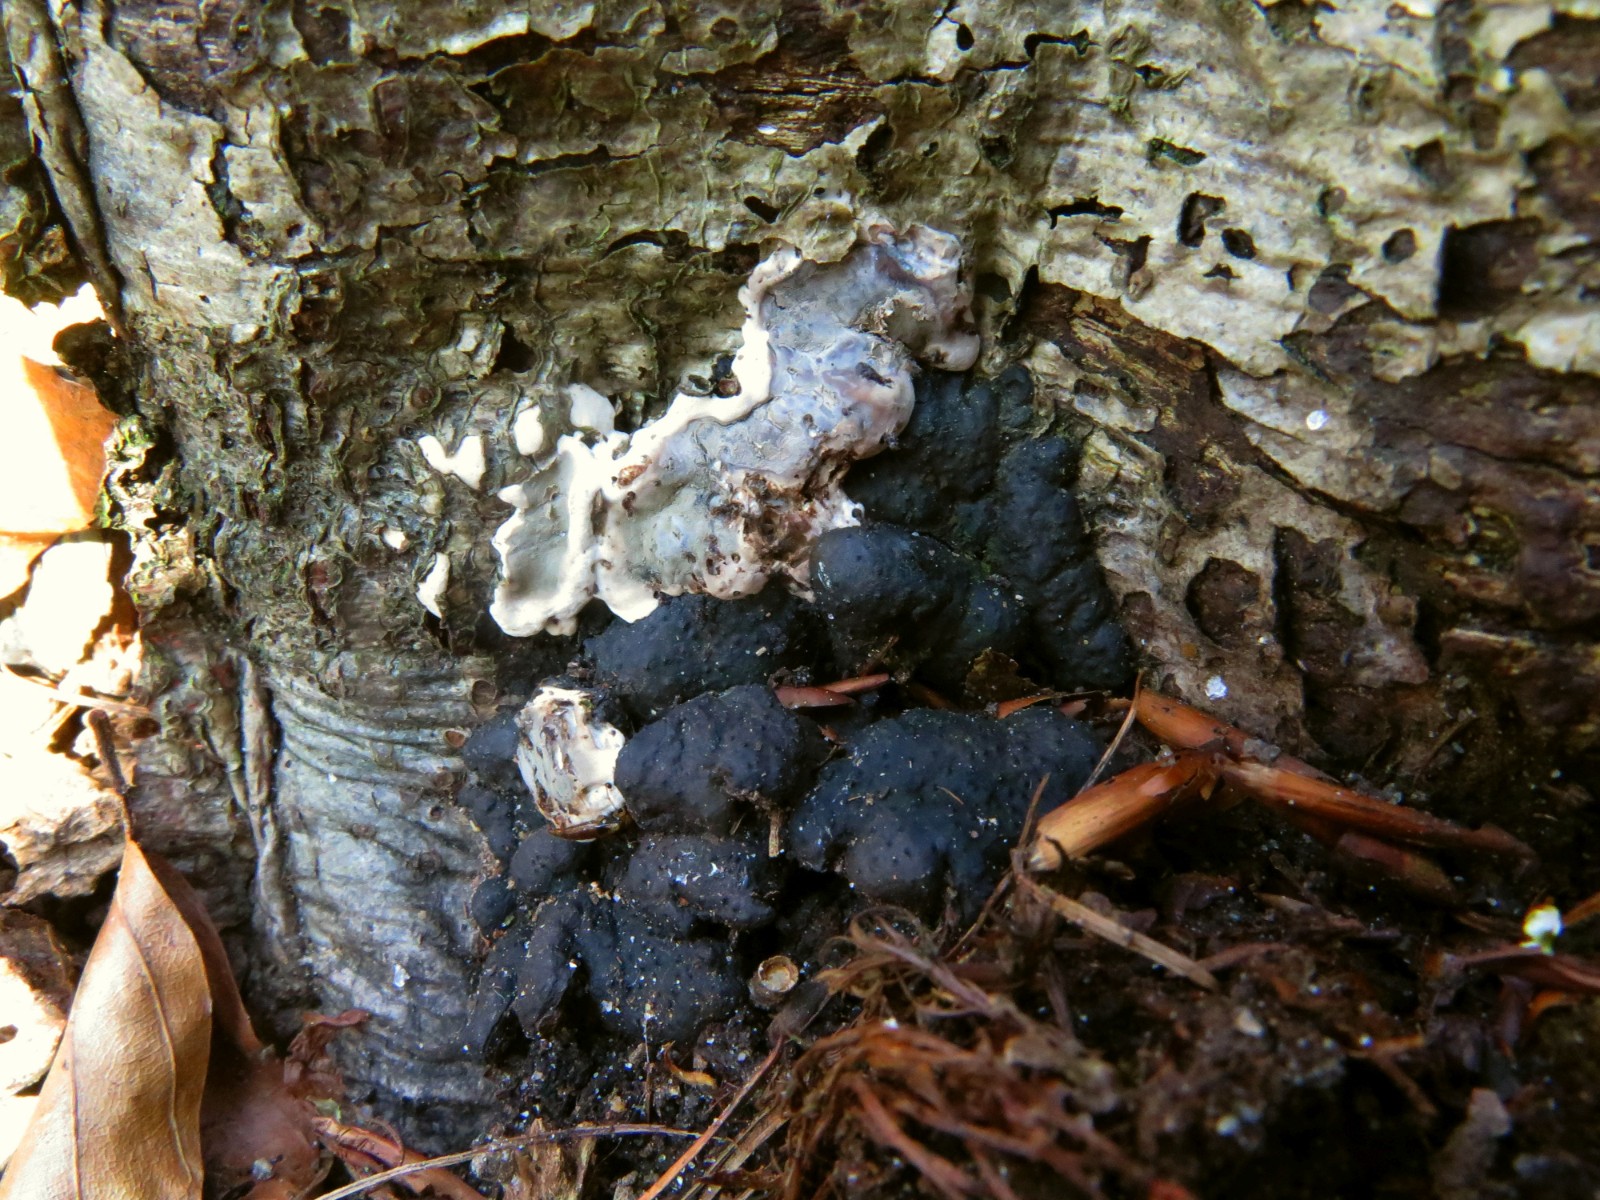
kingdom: Fungi
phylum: Ascomycota
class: Sordariomycetes
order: Xylariales
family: Xylariaceae
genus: Kretzschmaria
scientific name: Kretzschmaria deusta
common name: stor kulsvamp
